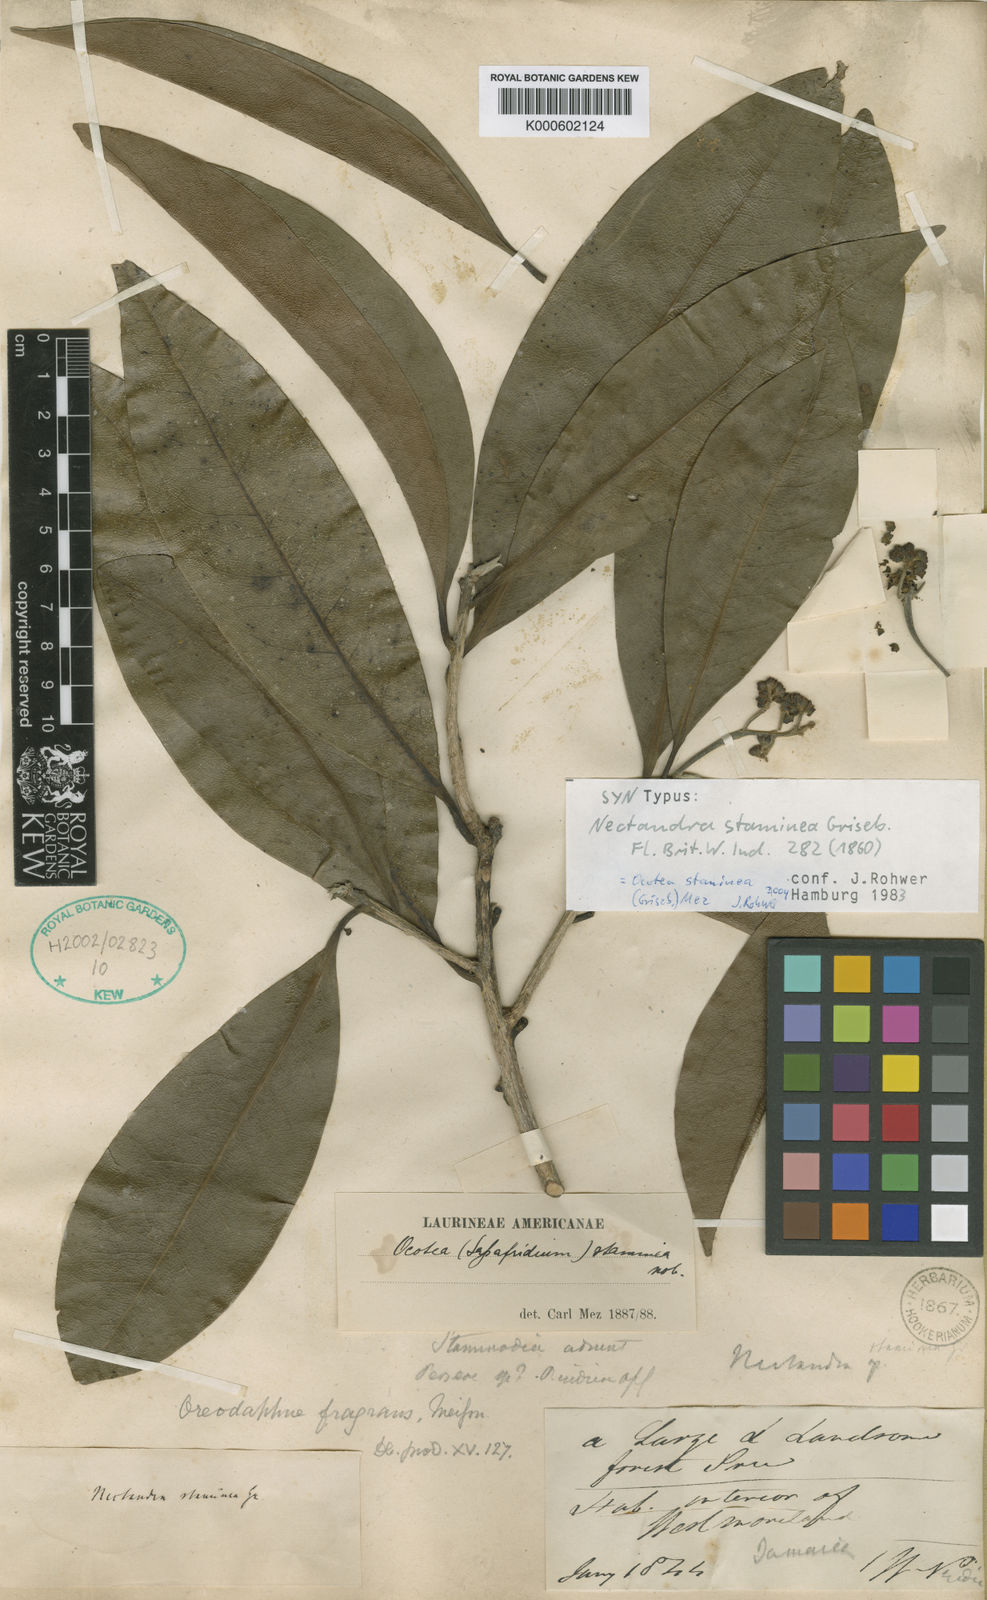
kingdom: Plantae
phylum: Tracheophyta
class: Magnoliopsida
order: Laurales
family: Lauraceae
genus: Mespilodaphne
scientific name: Mespilodaphne staminea
